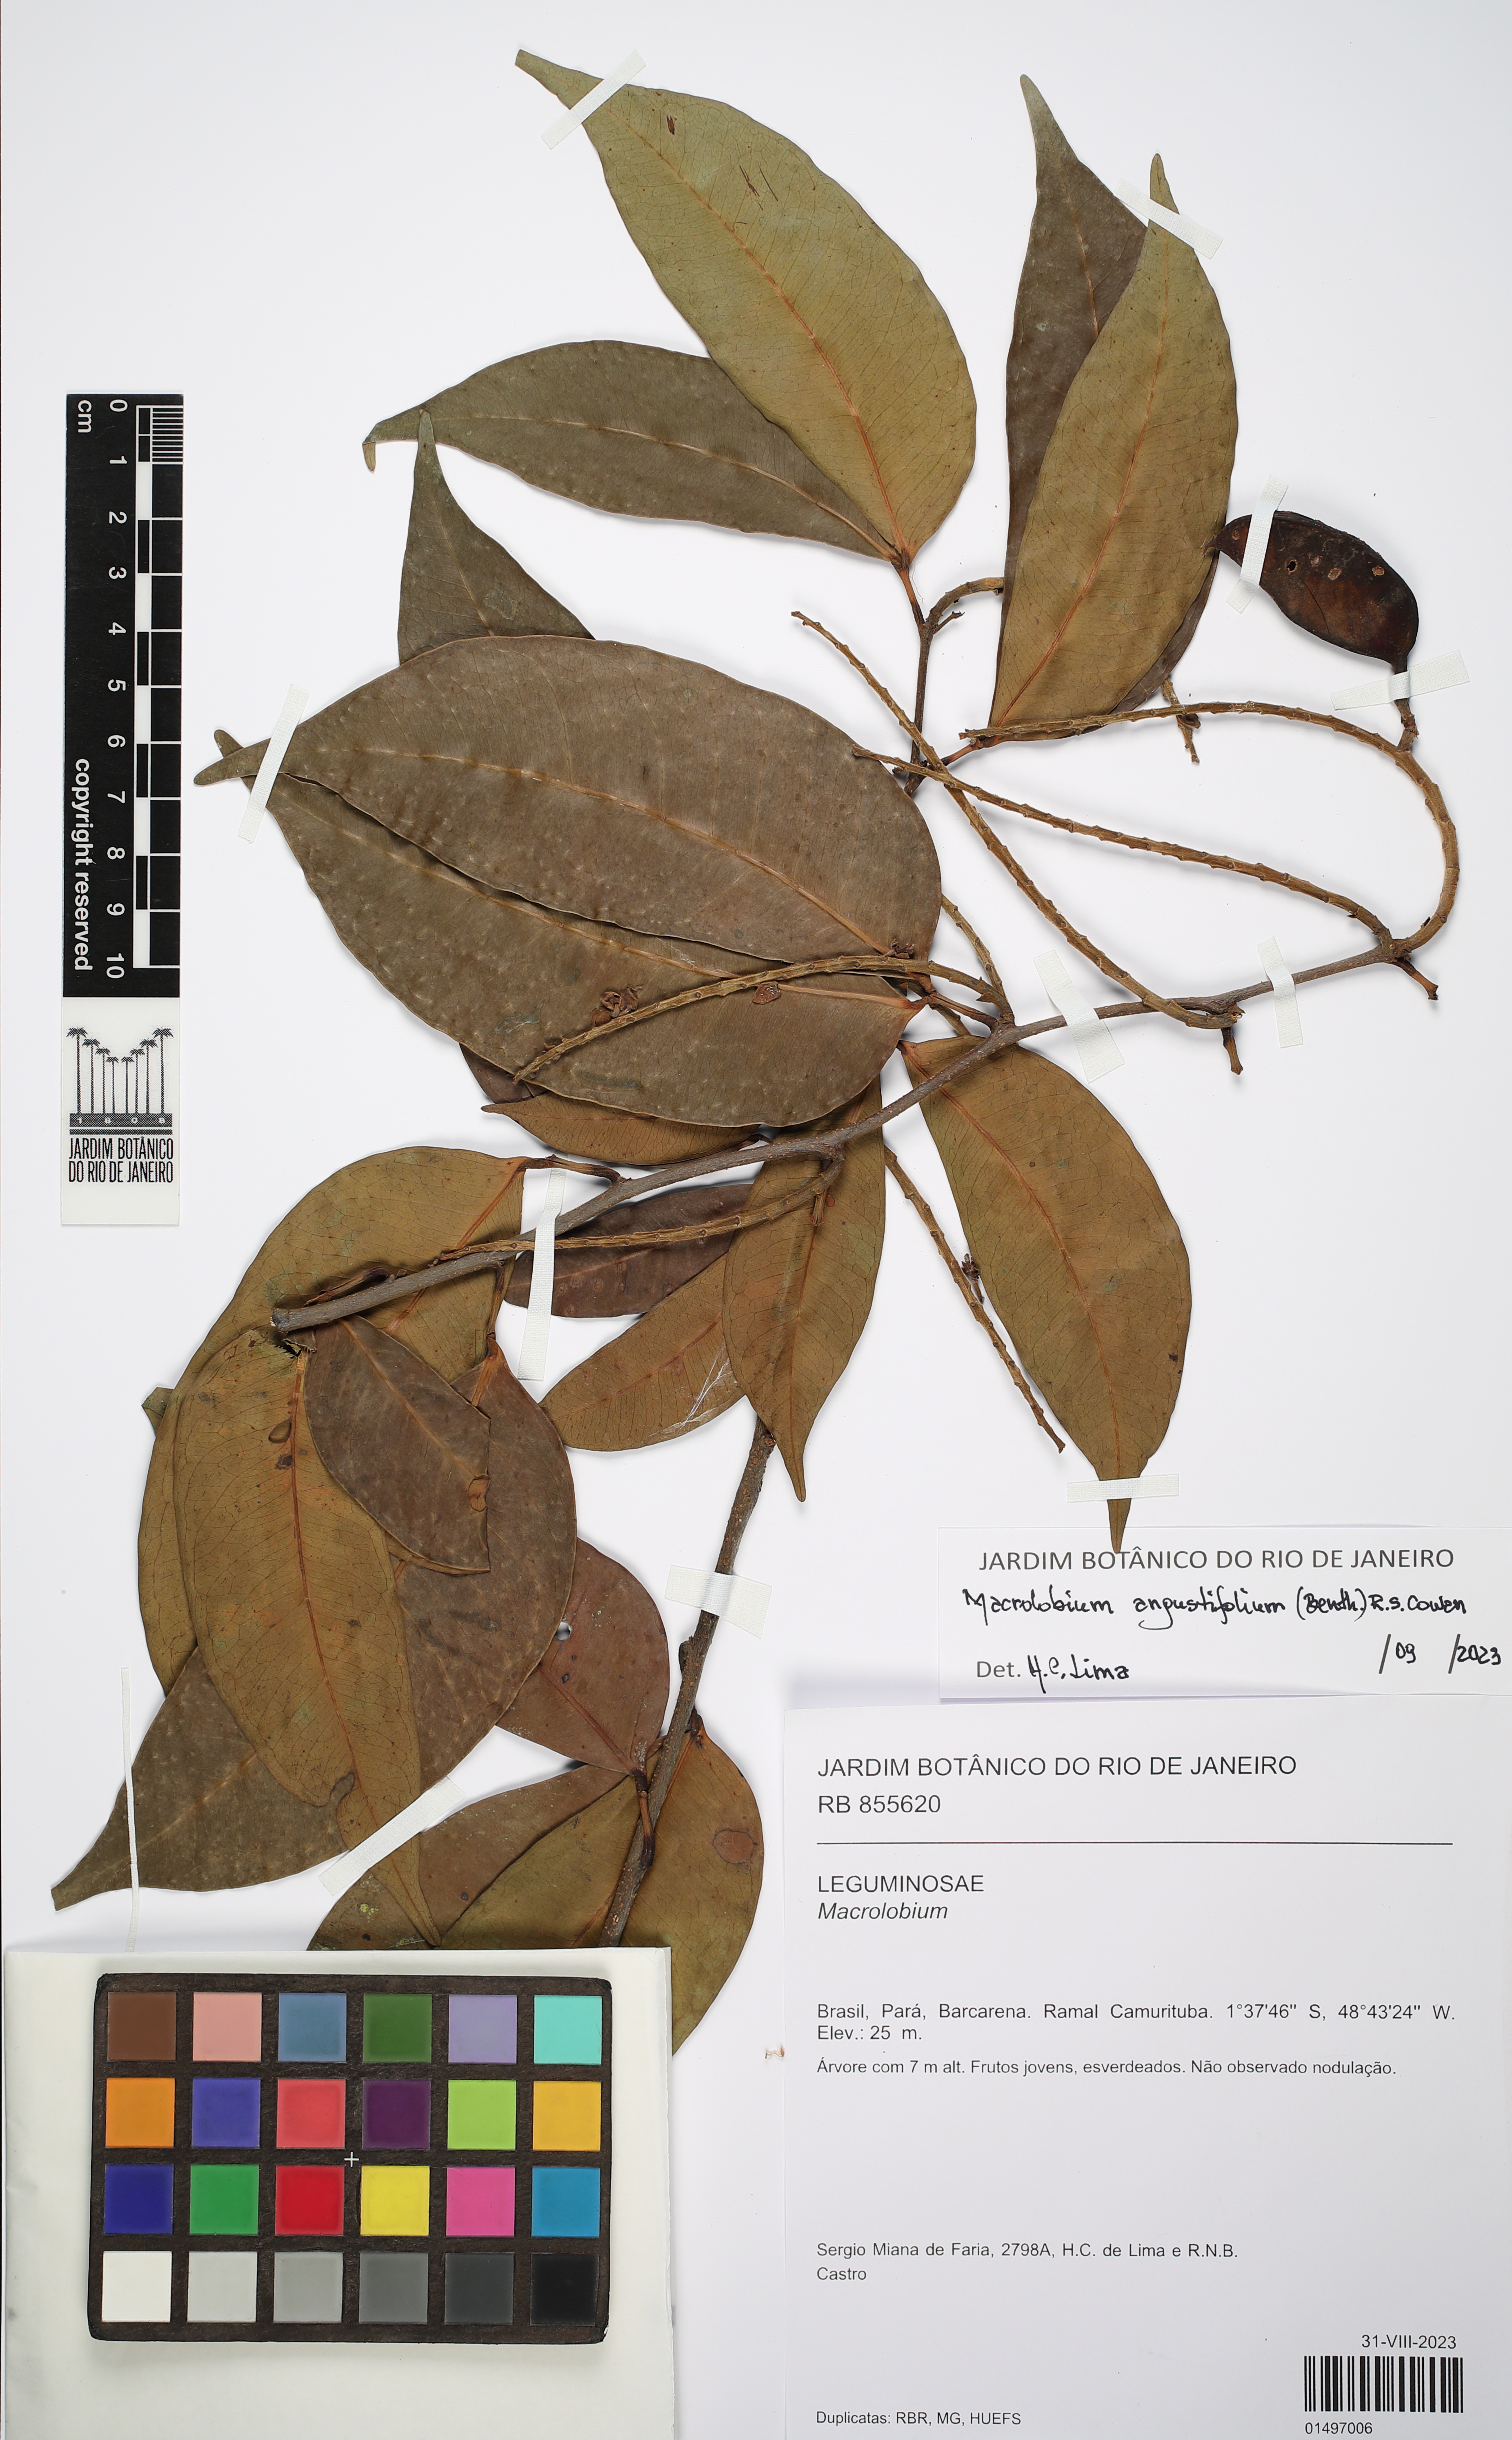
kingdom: Plantae
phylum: Tracheophyta
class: Magnoliopsida
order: Fabales
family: Fabaceae
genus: Macrolobium
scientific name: Macrolobium
